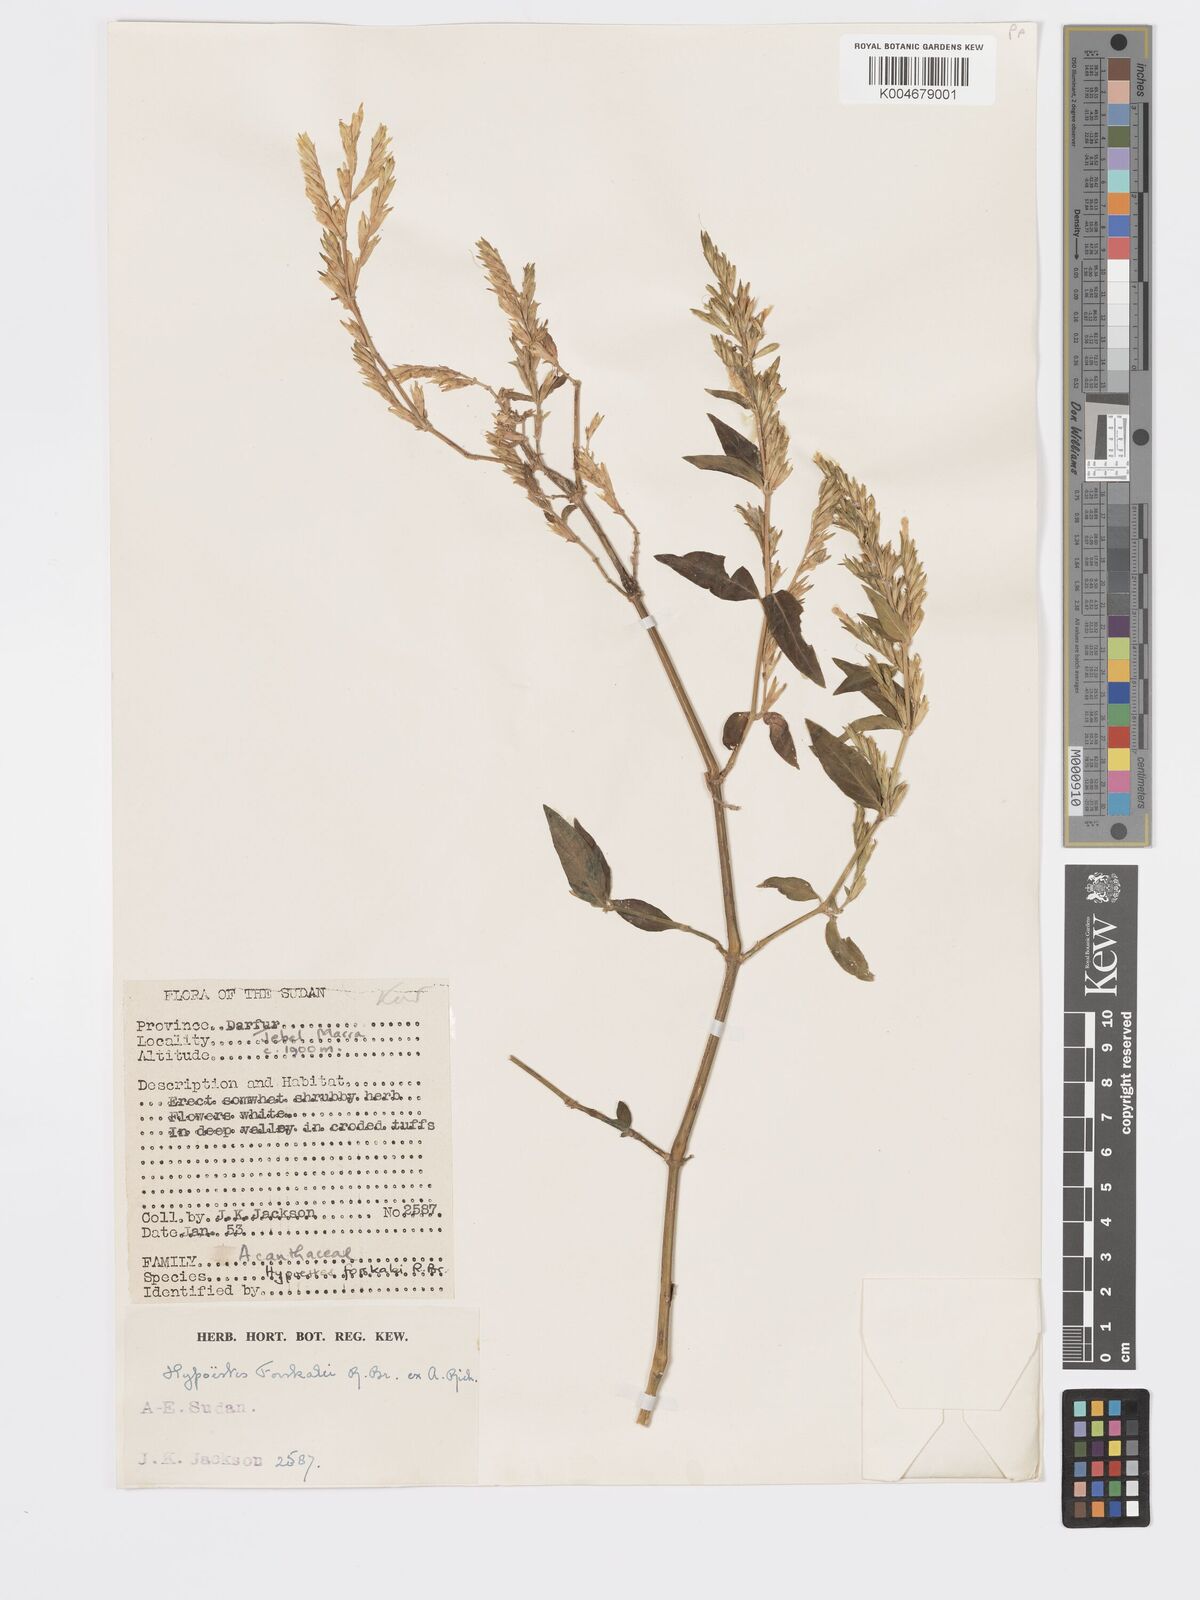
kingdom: Plantae
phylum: Tracheophyta
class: Magnoliopsida
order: Lamiales
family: Acanthaceae
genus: Hypoestes
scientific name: Hypoestes forskaolii
